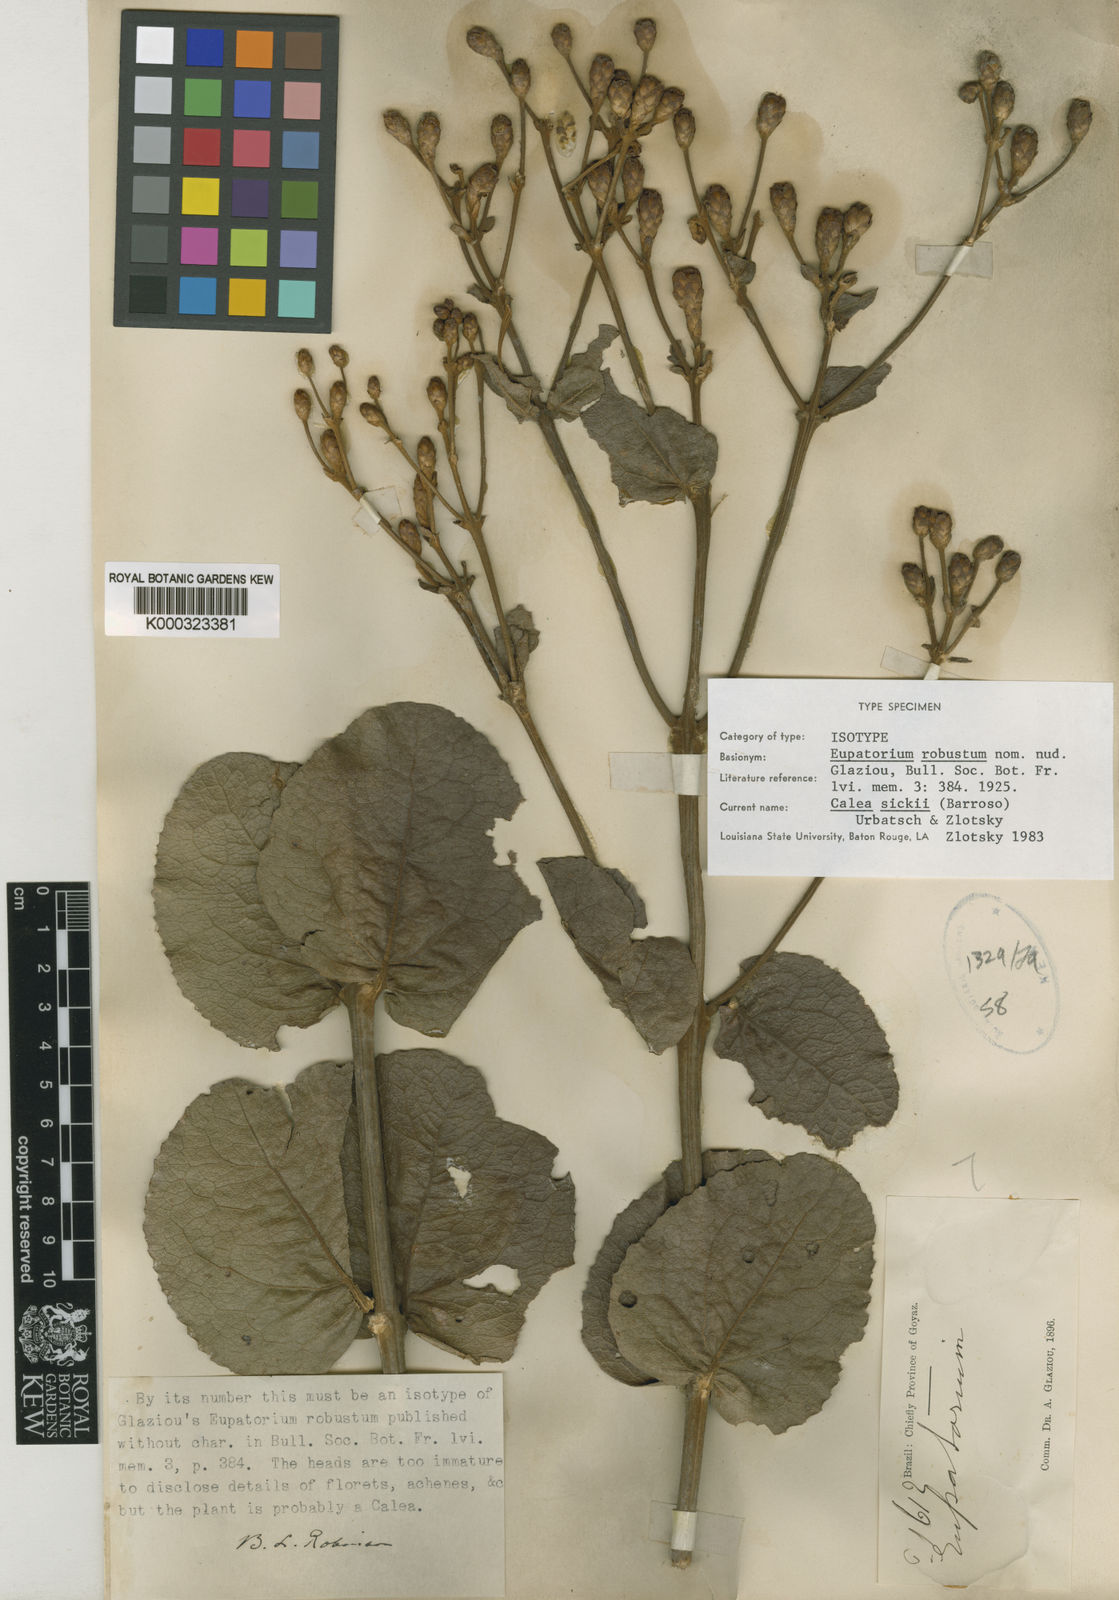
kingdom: Plantae
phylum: Tracheophyta
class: Magnoliopsida
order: Asterales
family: Asteraceae
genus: Calea
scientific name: Calea
